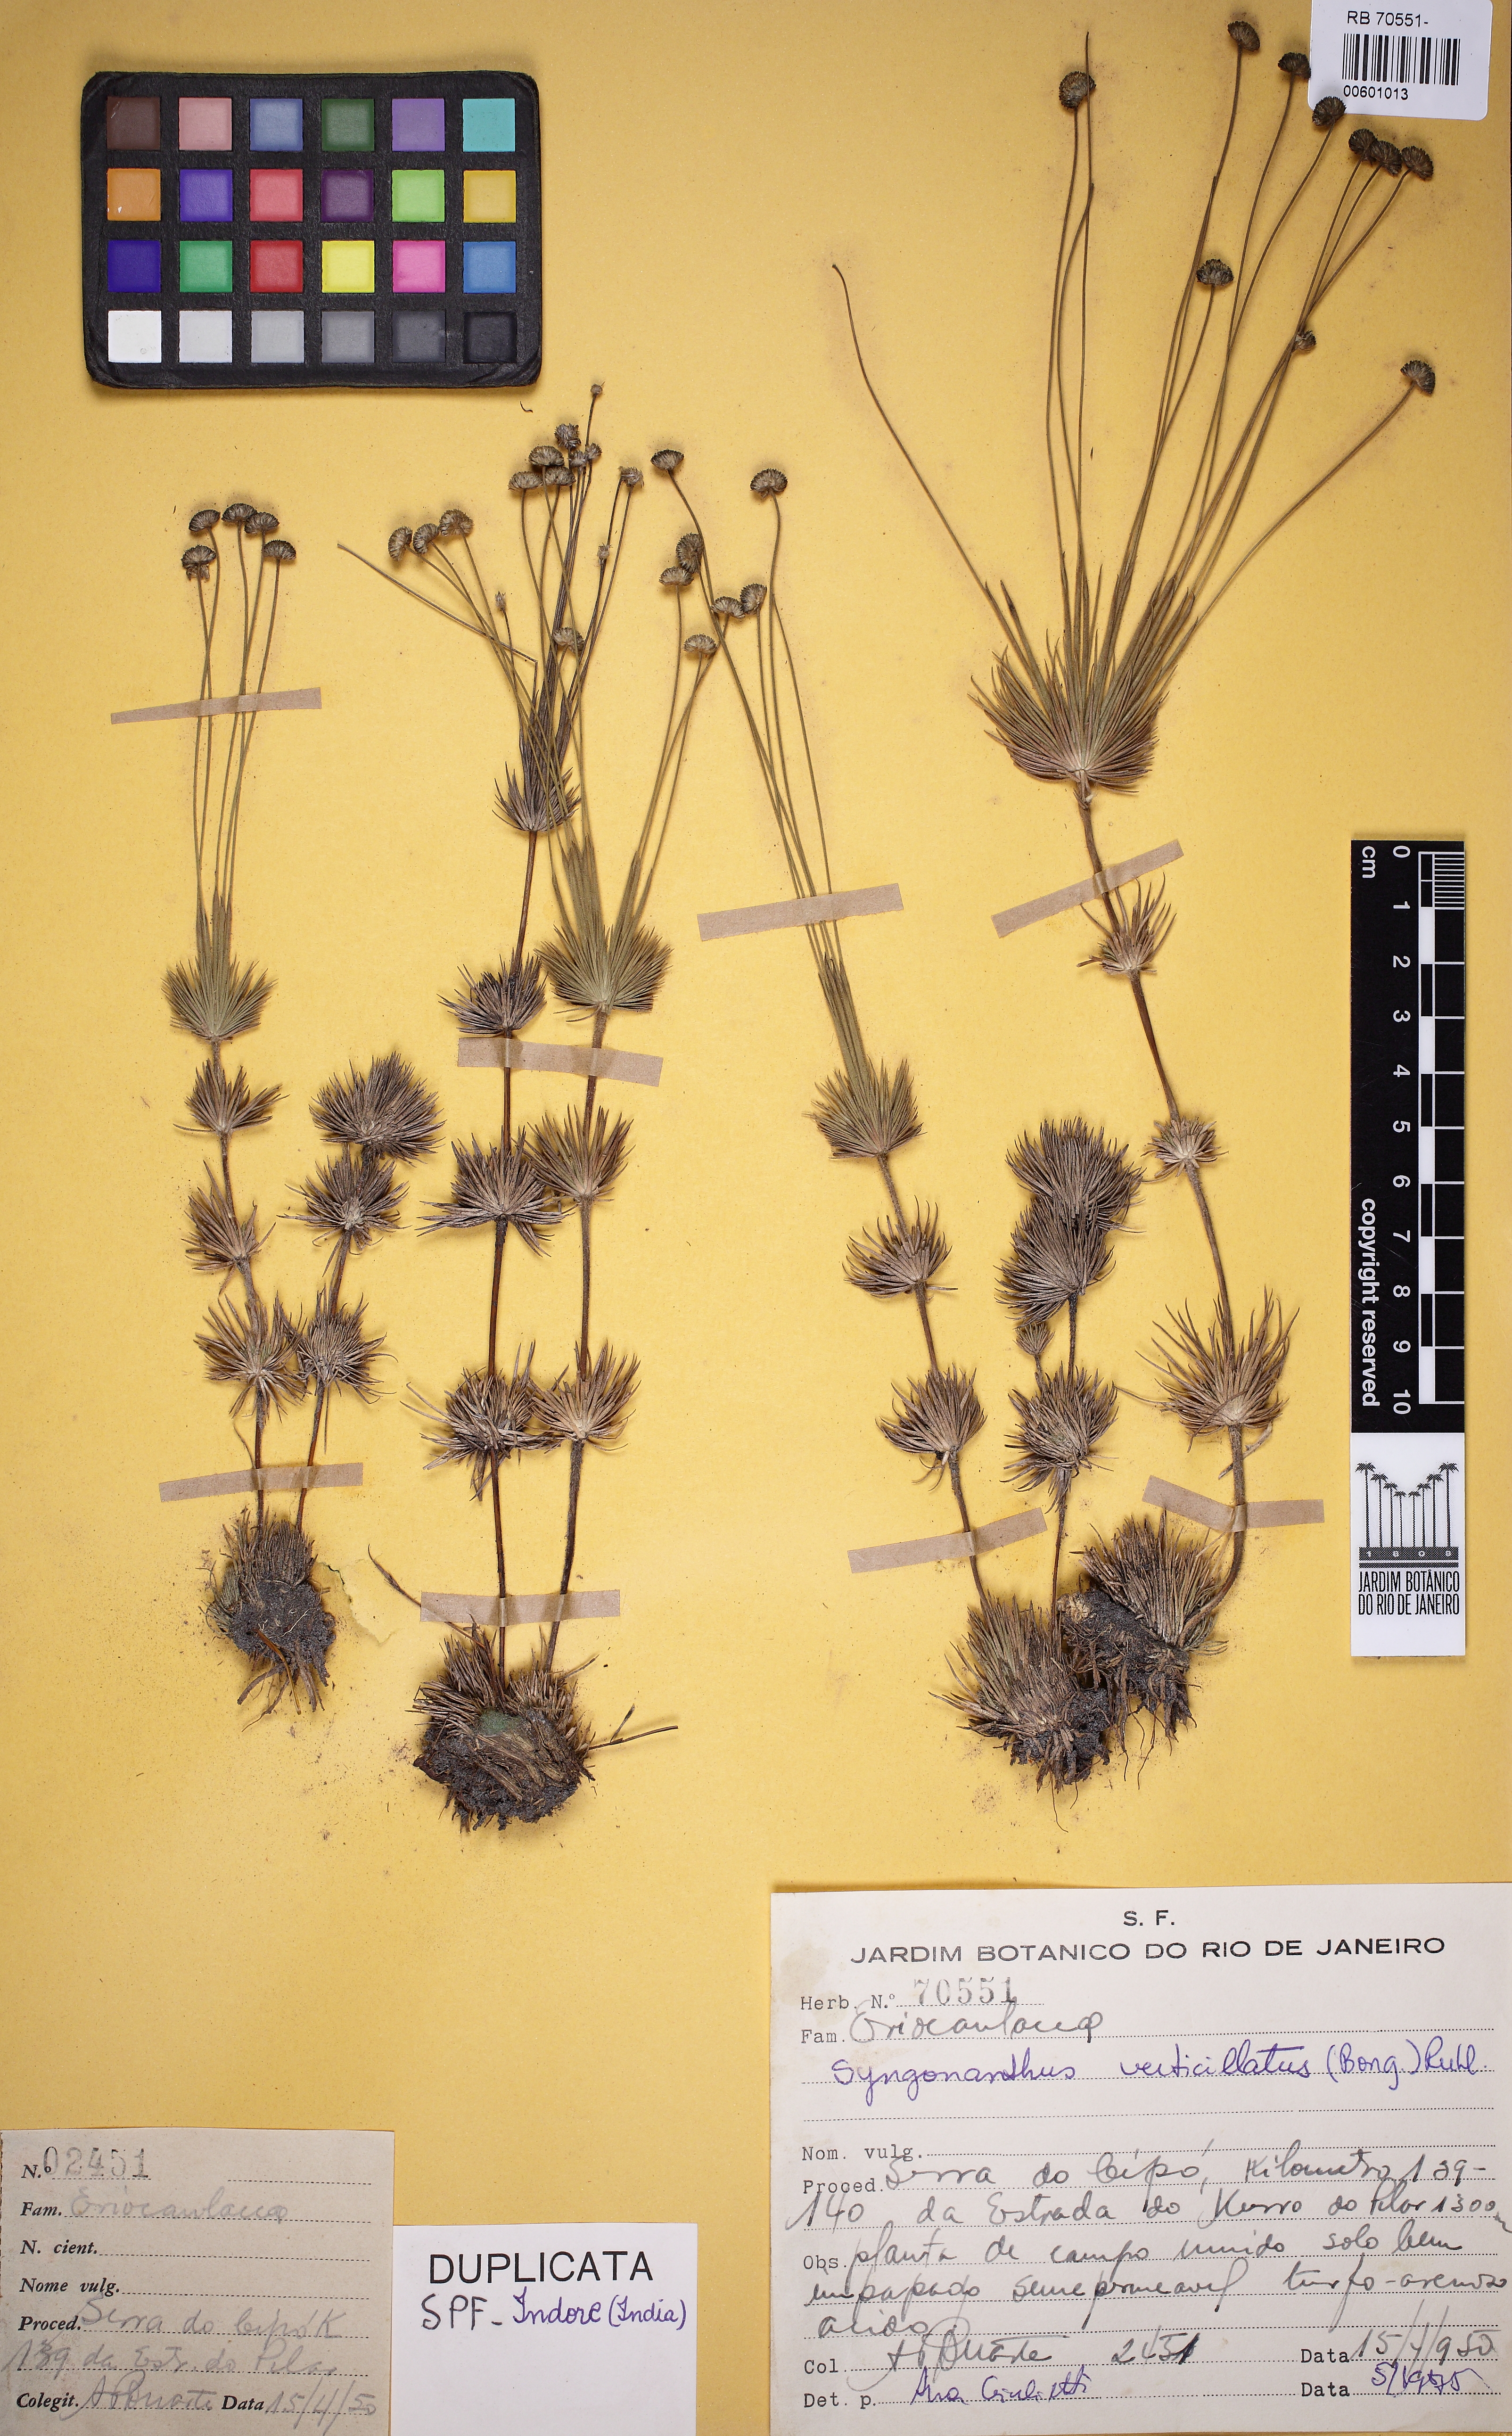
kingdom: Plantae
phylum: Tracheophyta
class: Liliopsida
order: Poales
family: Eriocaulaceae
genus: Syngonanthus
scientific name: Syngonanthus verticillatus
